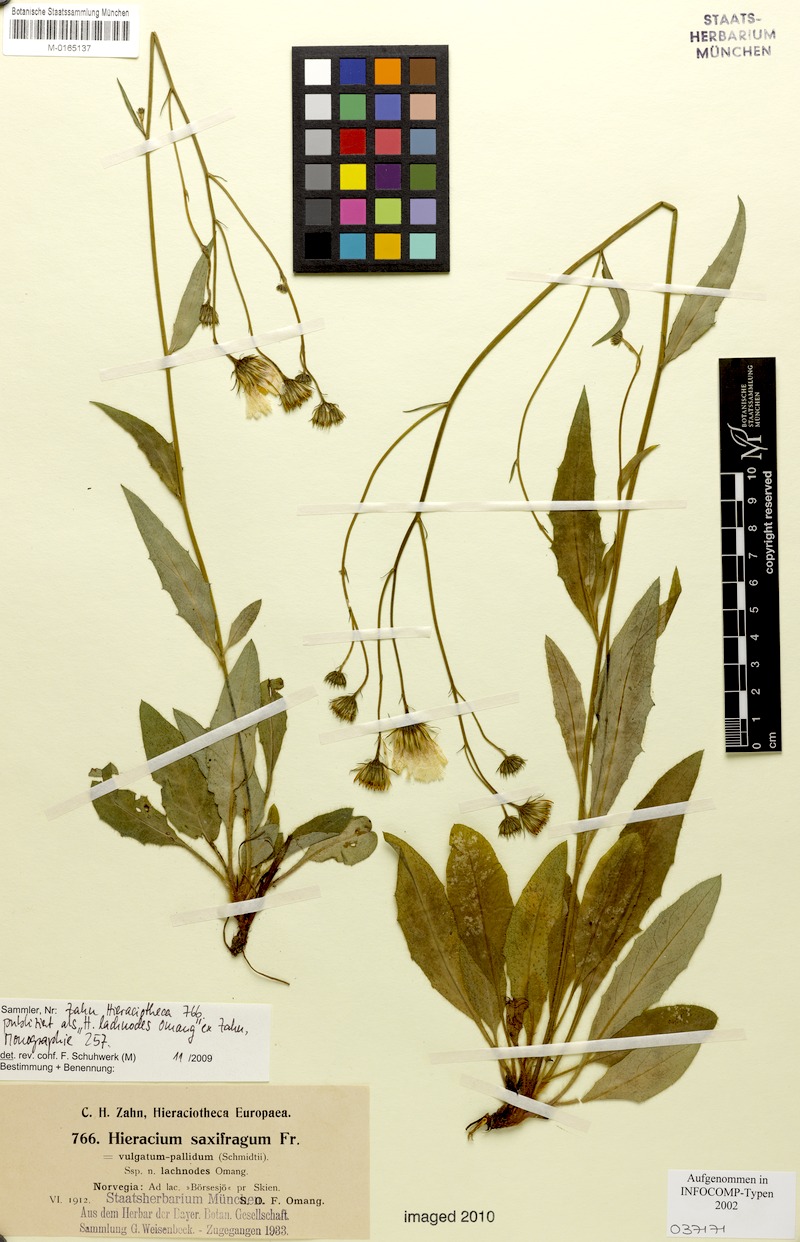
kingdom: Plantae
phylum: Tracheophyta
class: Magnoliopsida
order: Asterales
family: Asteraceae
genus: Hieracium
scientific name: Hieracium saxifragum
